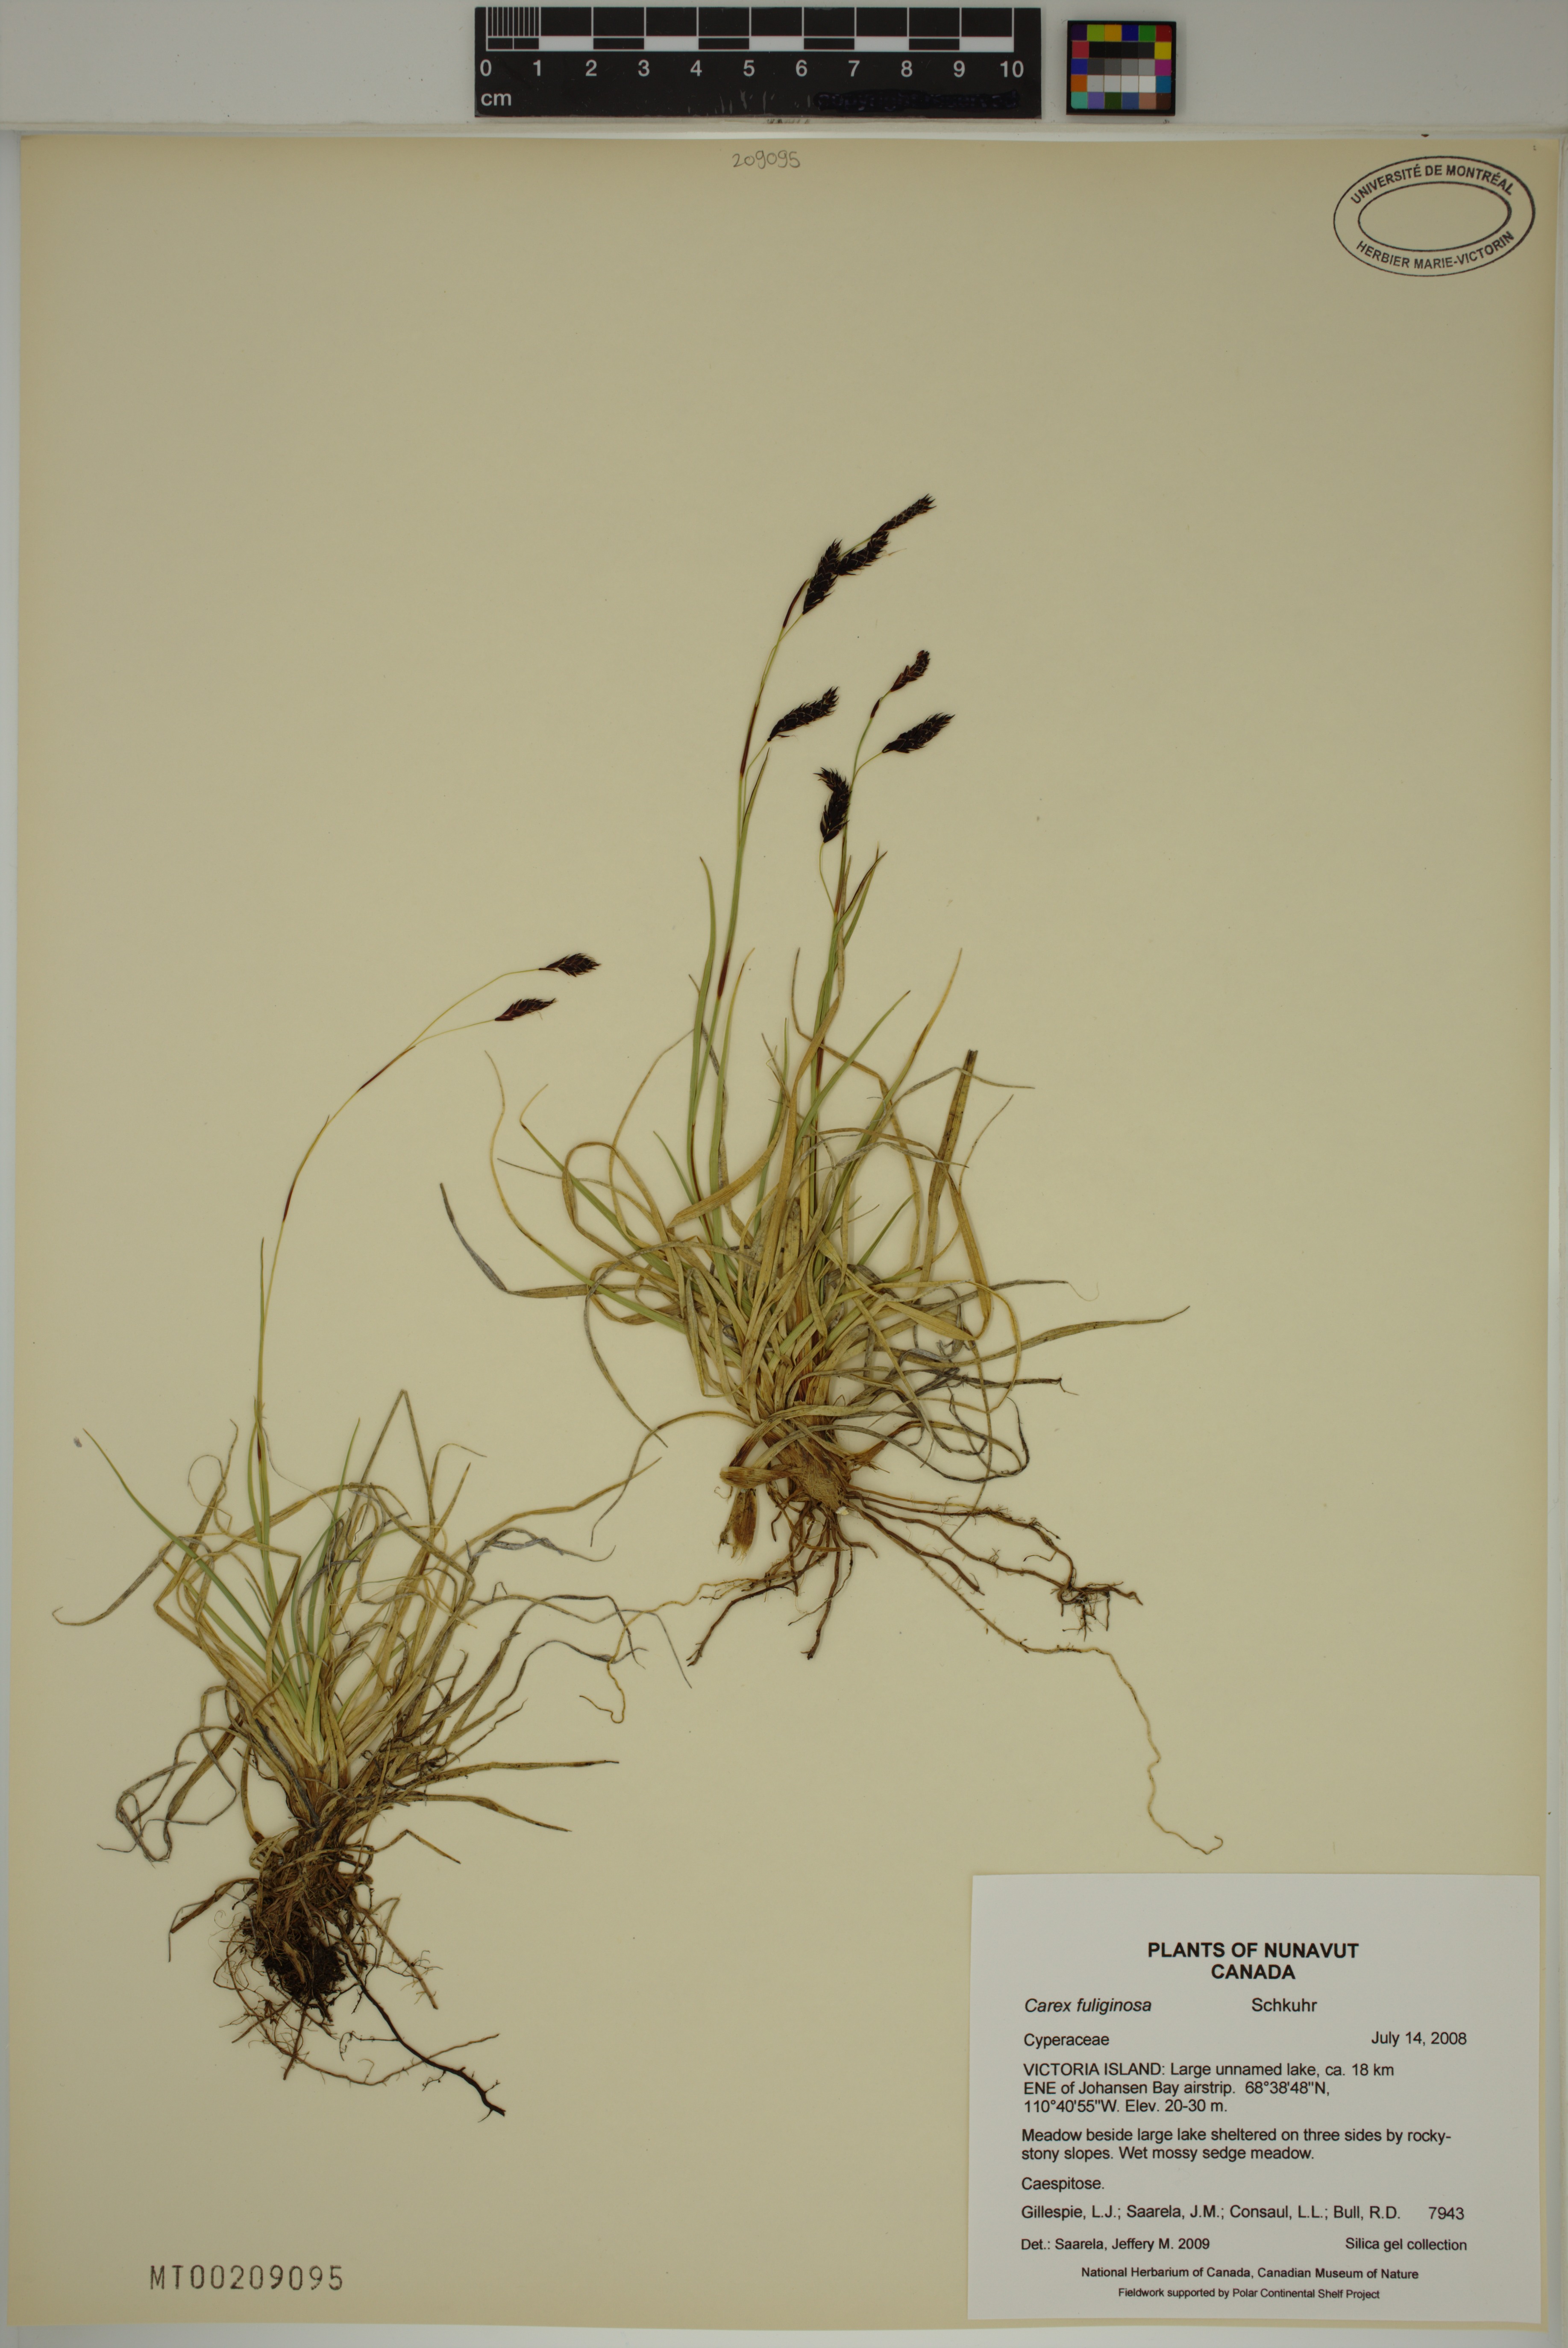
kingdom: Plantae
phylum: Tracheophyta
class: Liliopsida
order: Poales
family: Cyperaceae
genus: Carex
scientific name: Carex fuliginosa
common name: Few-flowered sedge
